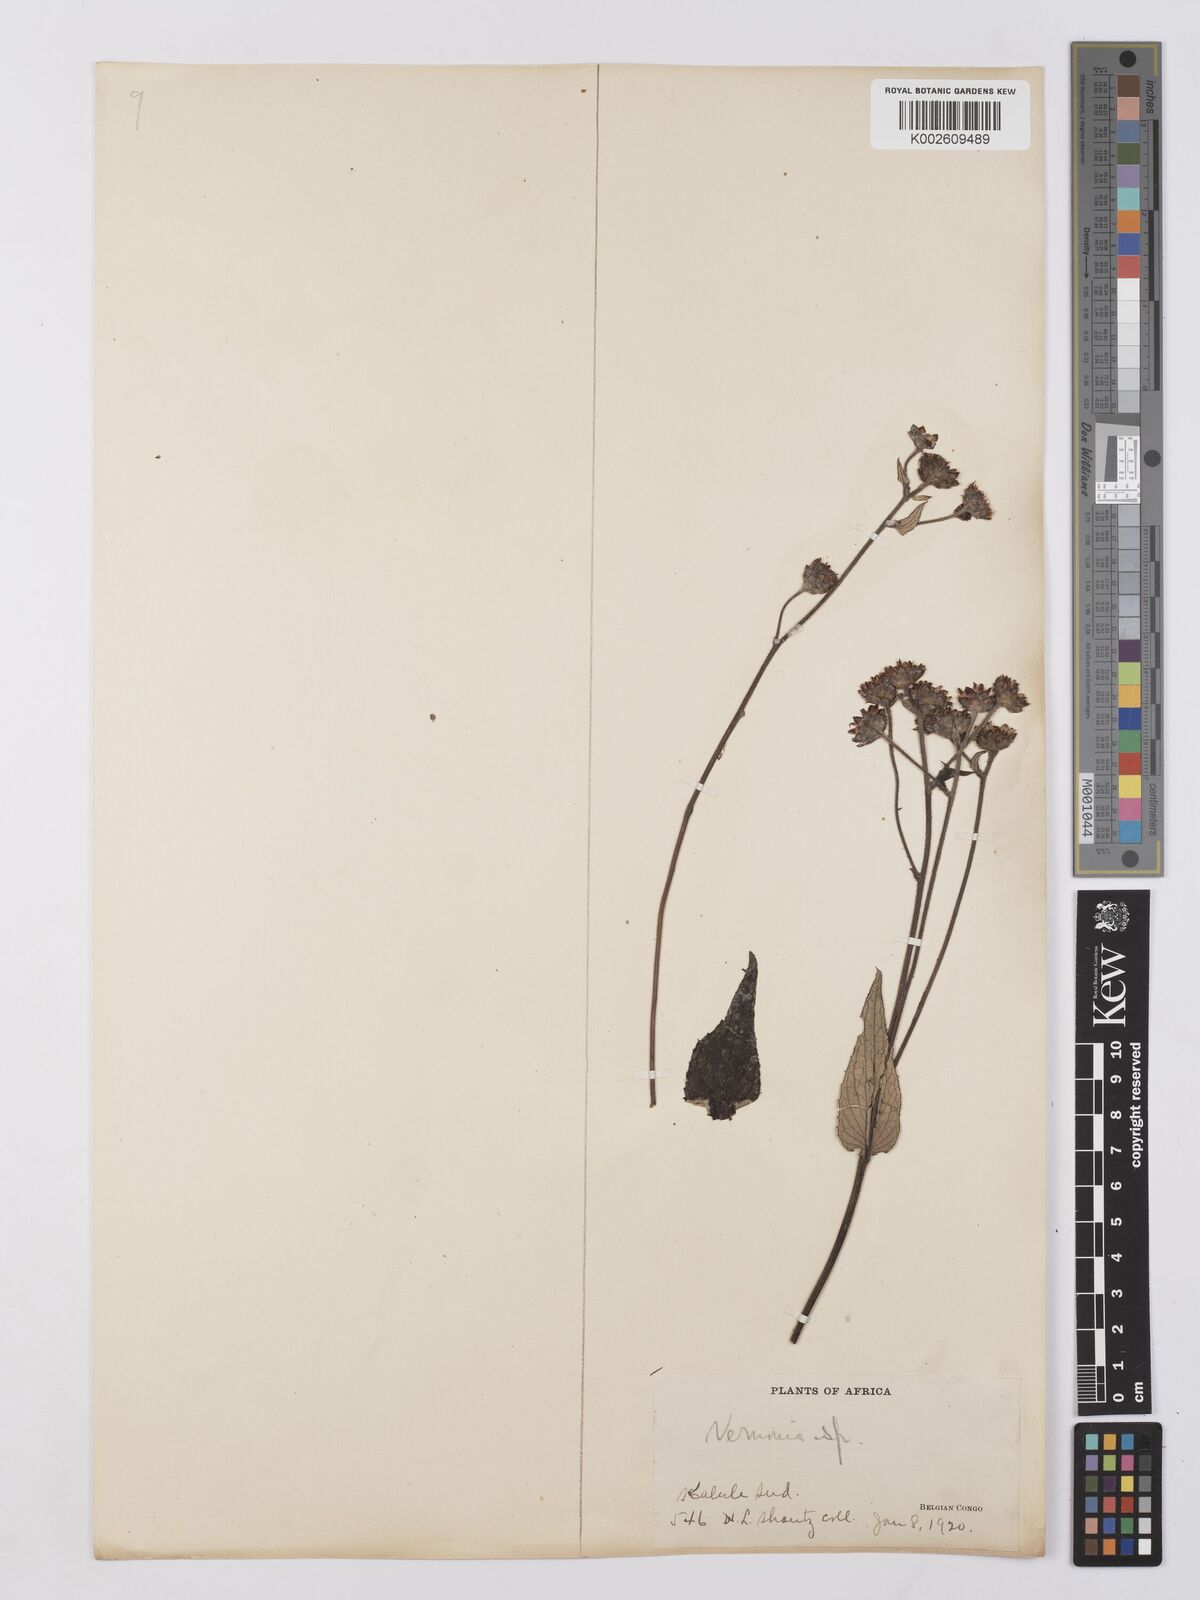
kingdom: Plantae
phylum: Tracheophyta
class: Magnoliopsida
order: Asterales
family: Asteraceae
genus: Vernonia
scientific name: Vernonia
